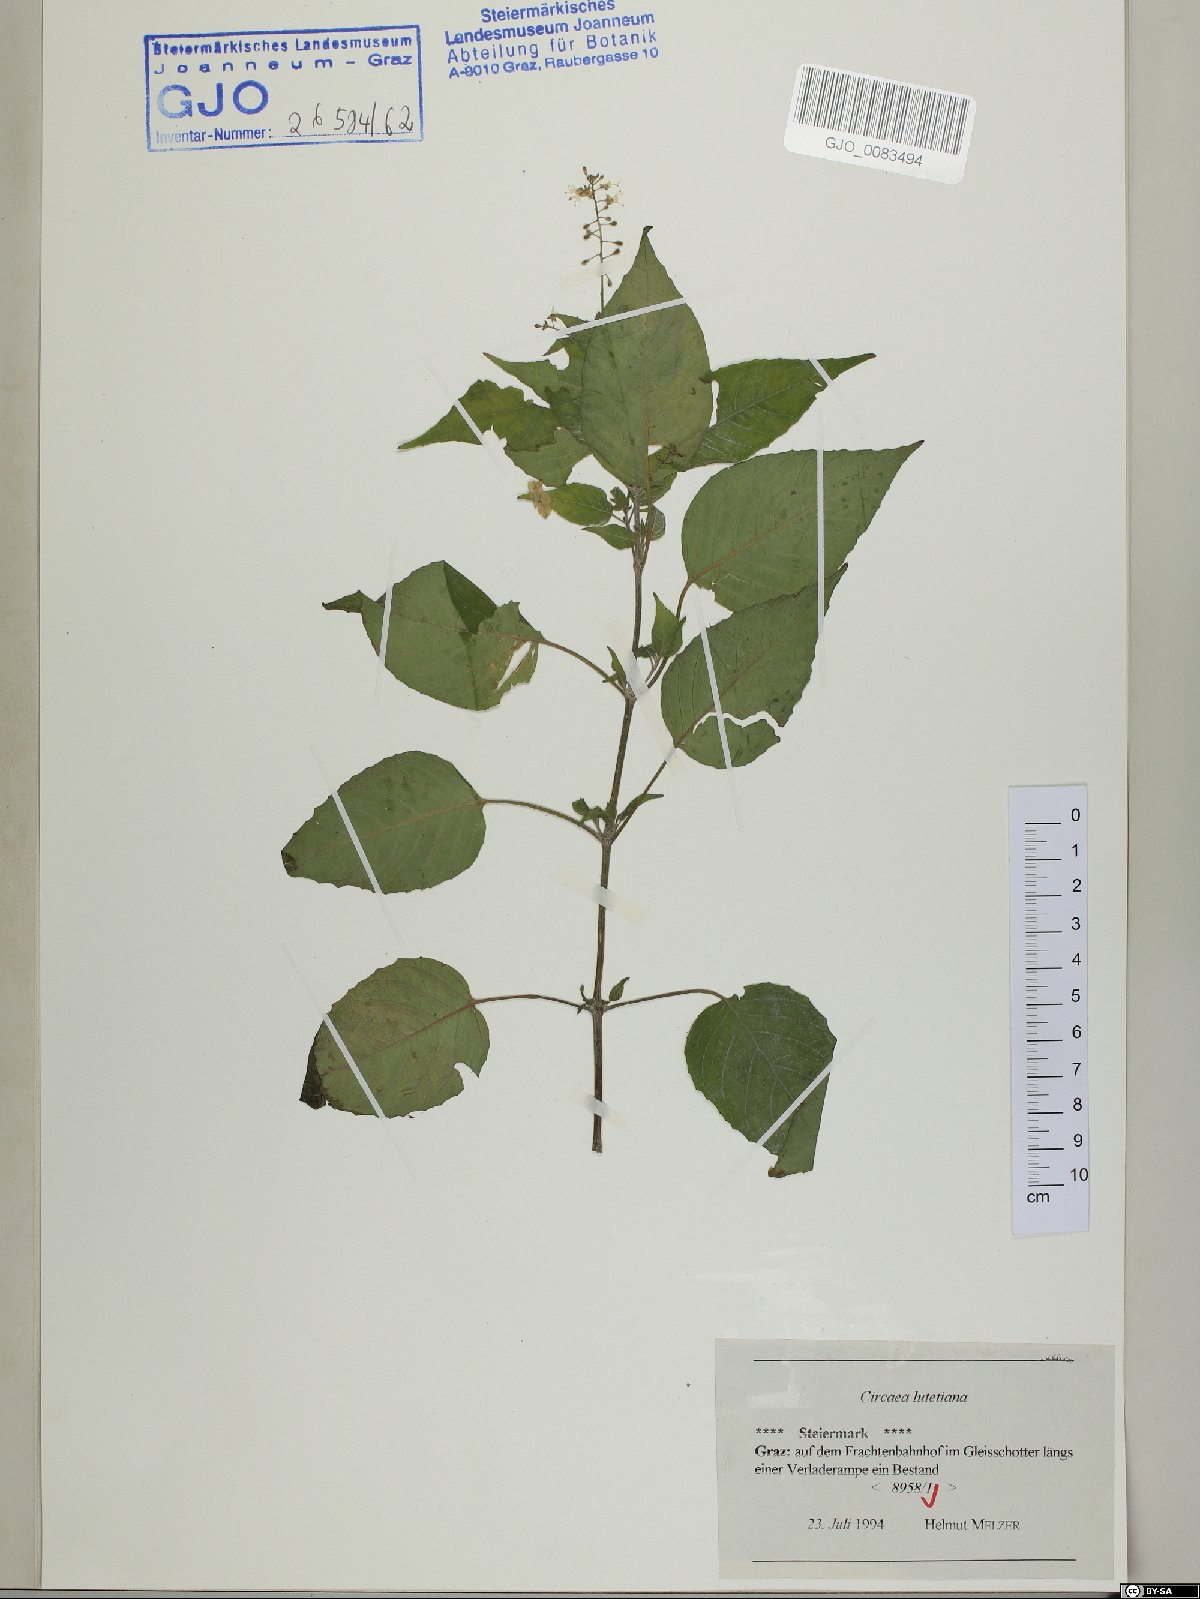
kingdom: Plantae
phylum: Tracheophyta
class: Magnoliopsida
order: Myrtales
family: Onagraceae
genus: Circaea
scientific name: Circaea lutetiana
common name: Enchanter's-nightshade
